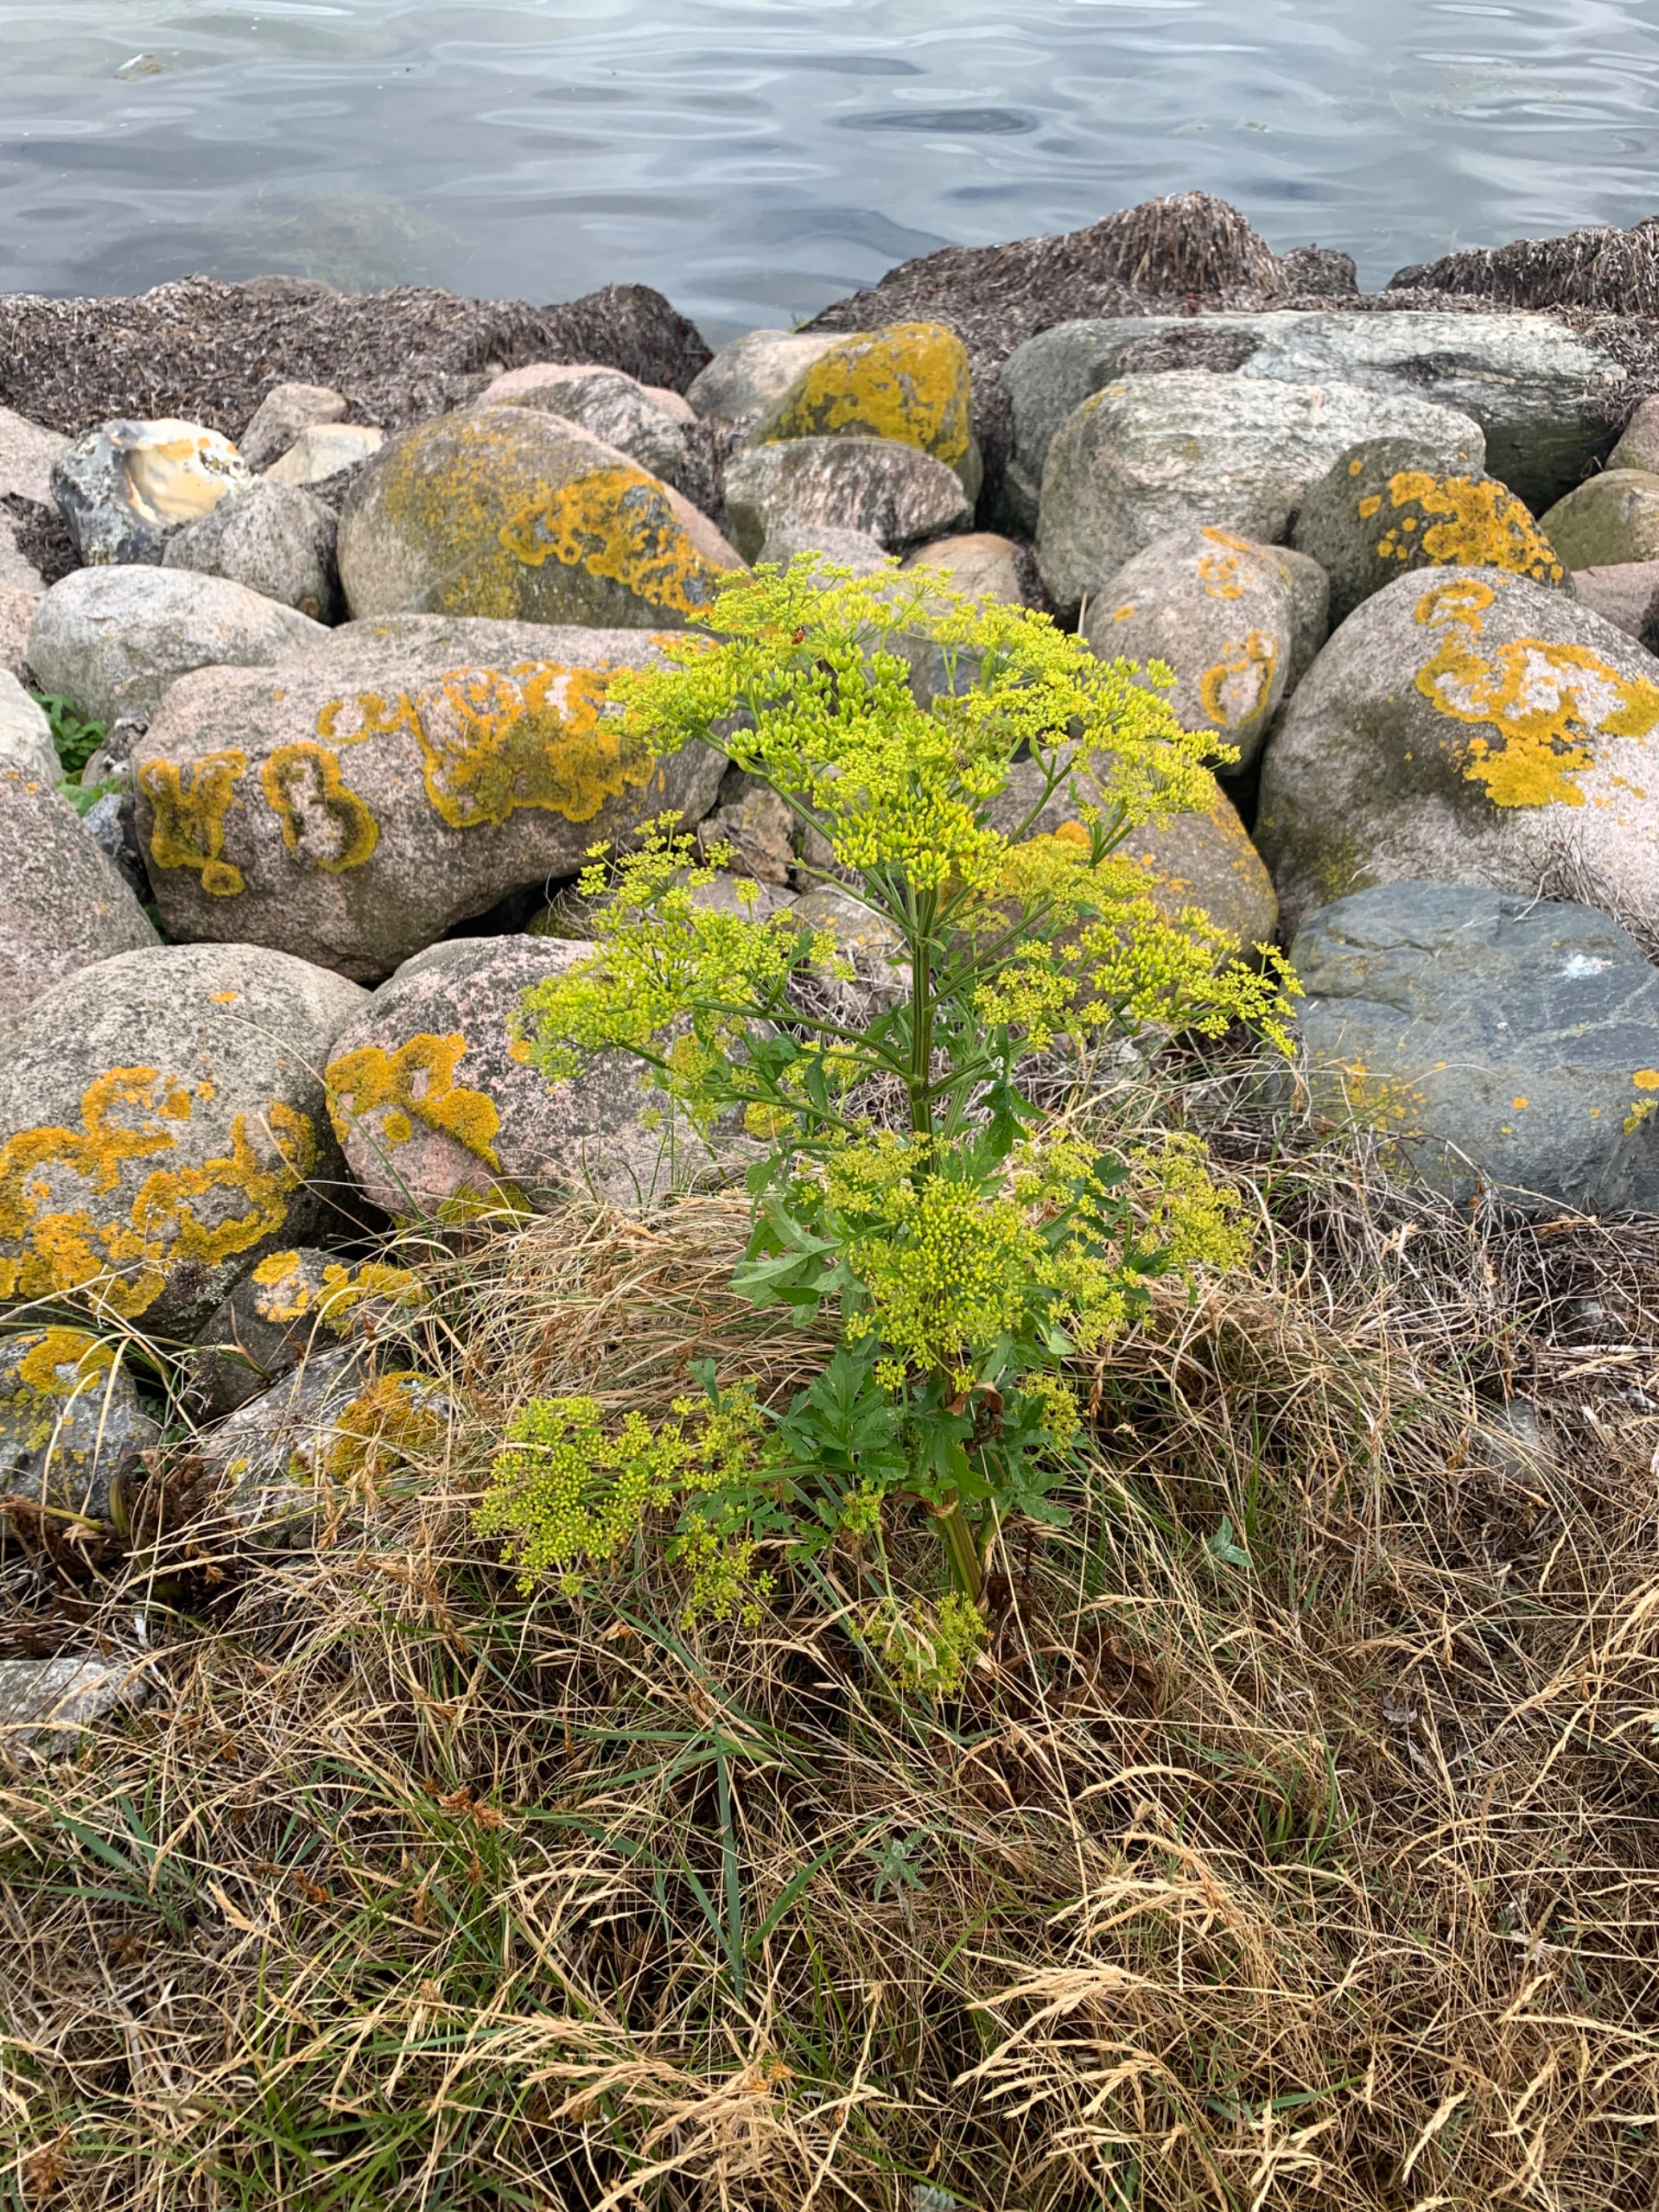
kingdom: Plantae
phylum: Tracheophyta
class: Magnoliopsida
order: Apiales
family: Apiaceae
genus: Pastinaca
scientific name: Pastinaca sativa
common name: Pastinak
